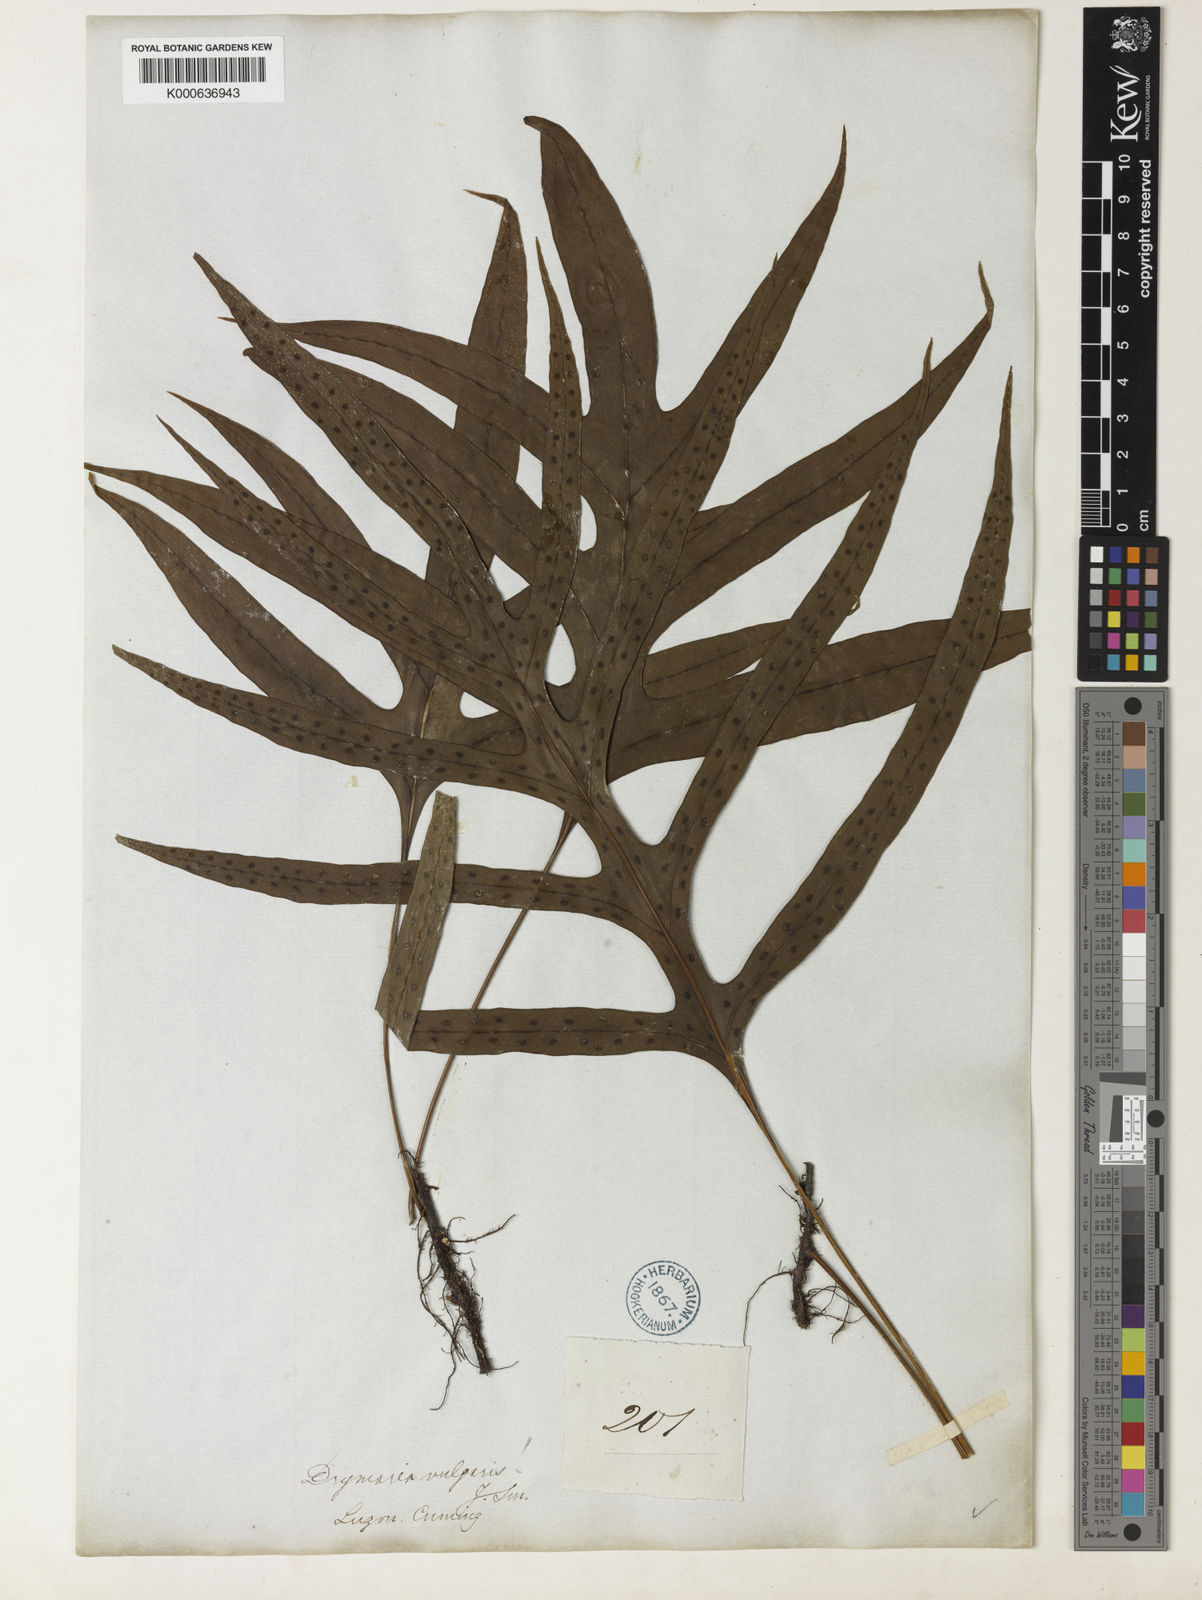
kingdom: Plantae
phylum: Tracheophyta
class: Polypodiopsida
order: Polypodiales
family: Polypodiaceae
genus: Microsorum
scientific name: Microsorum scolopendria
